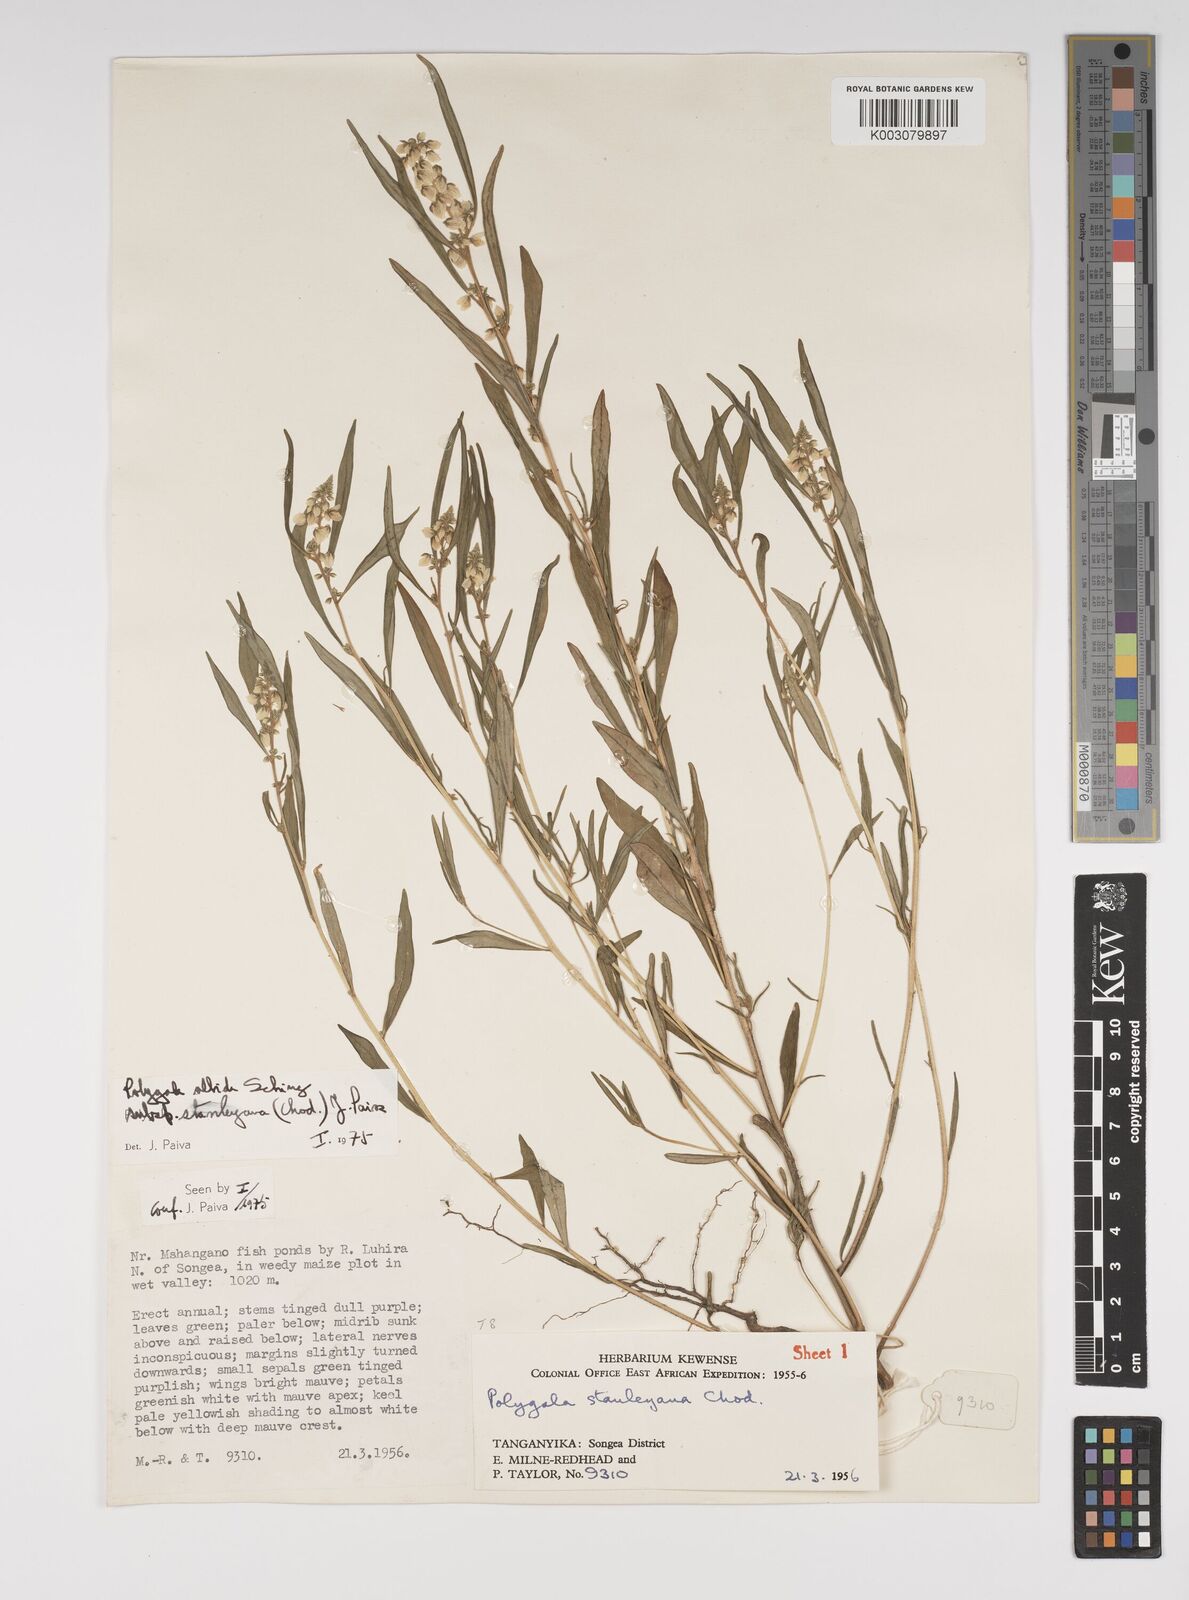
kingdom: Plantae
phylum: Tracheophyta
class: Magnoliopsida
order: Fabales
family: Polygalaceae
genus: Polygala
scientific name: Polygala albida
